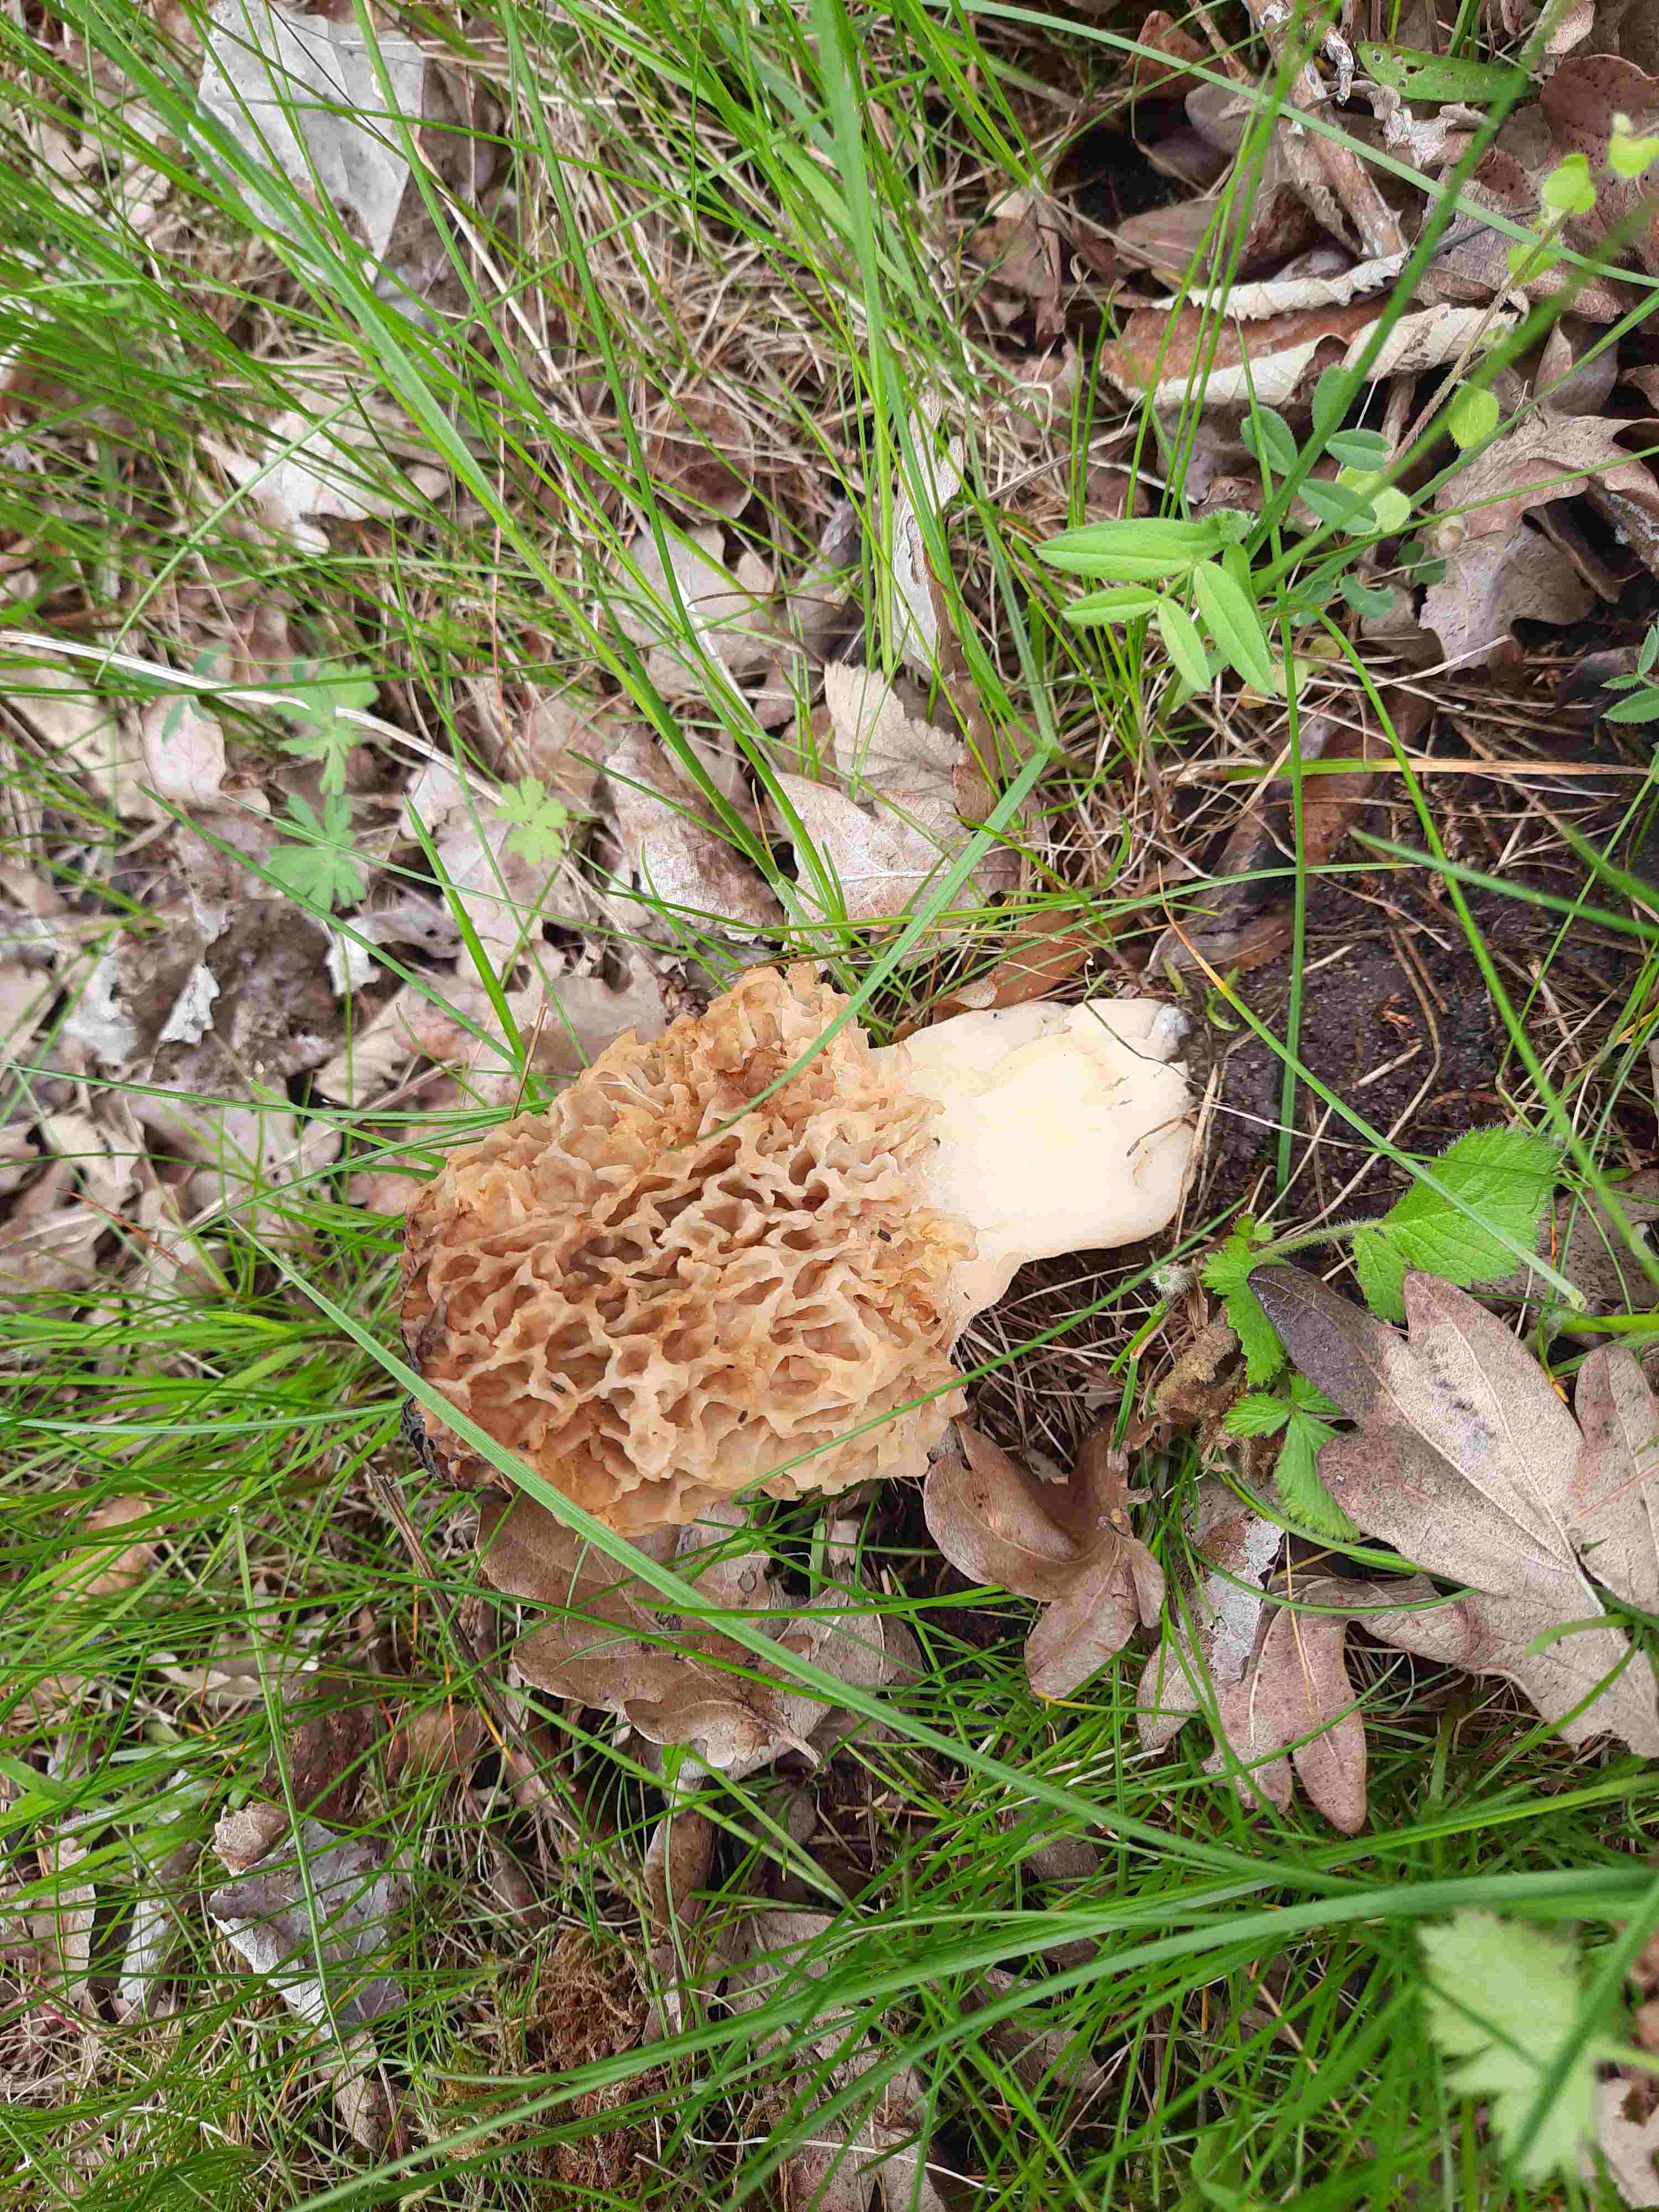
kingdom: Fungi
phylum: Ascomycota
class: Pezizomycetes
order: Pezizales
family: Morchellaceae
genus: Morchella
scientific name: Morchella esculenta
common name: almindelig morkel
